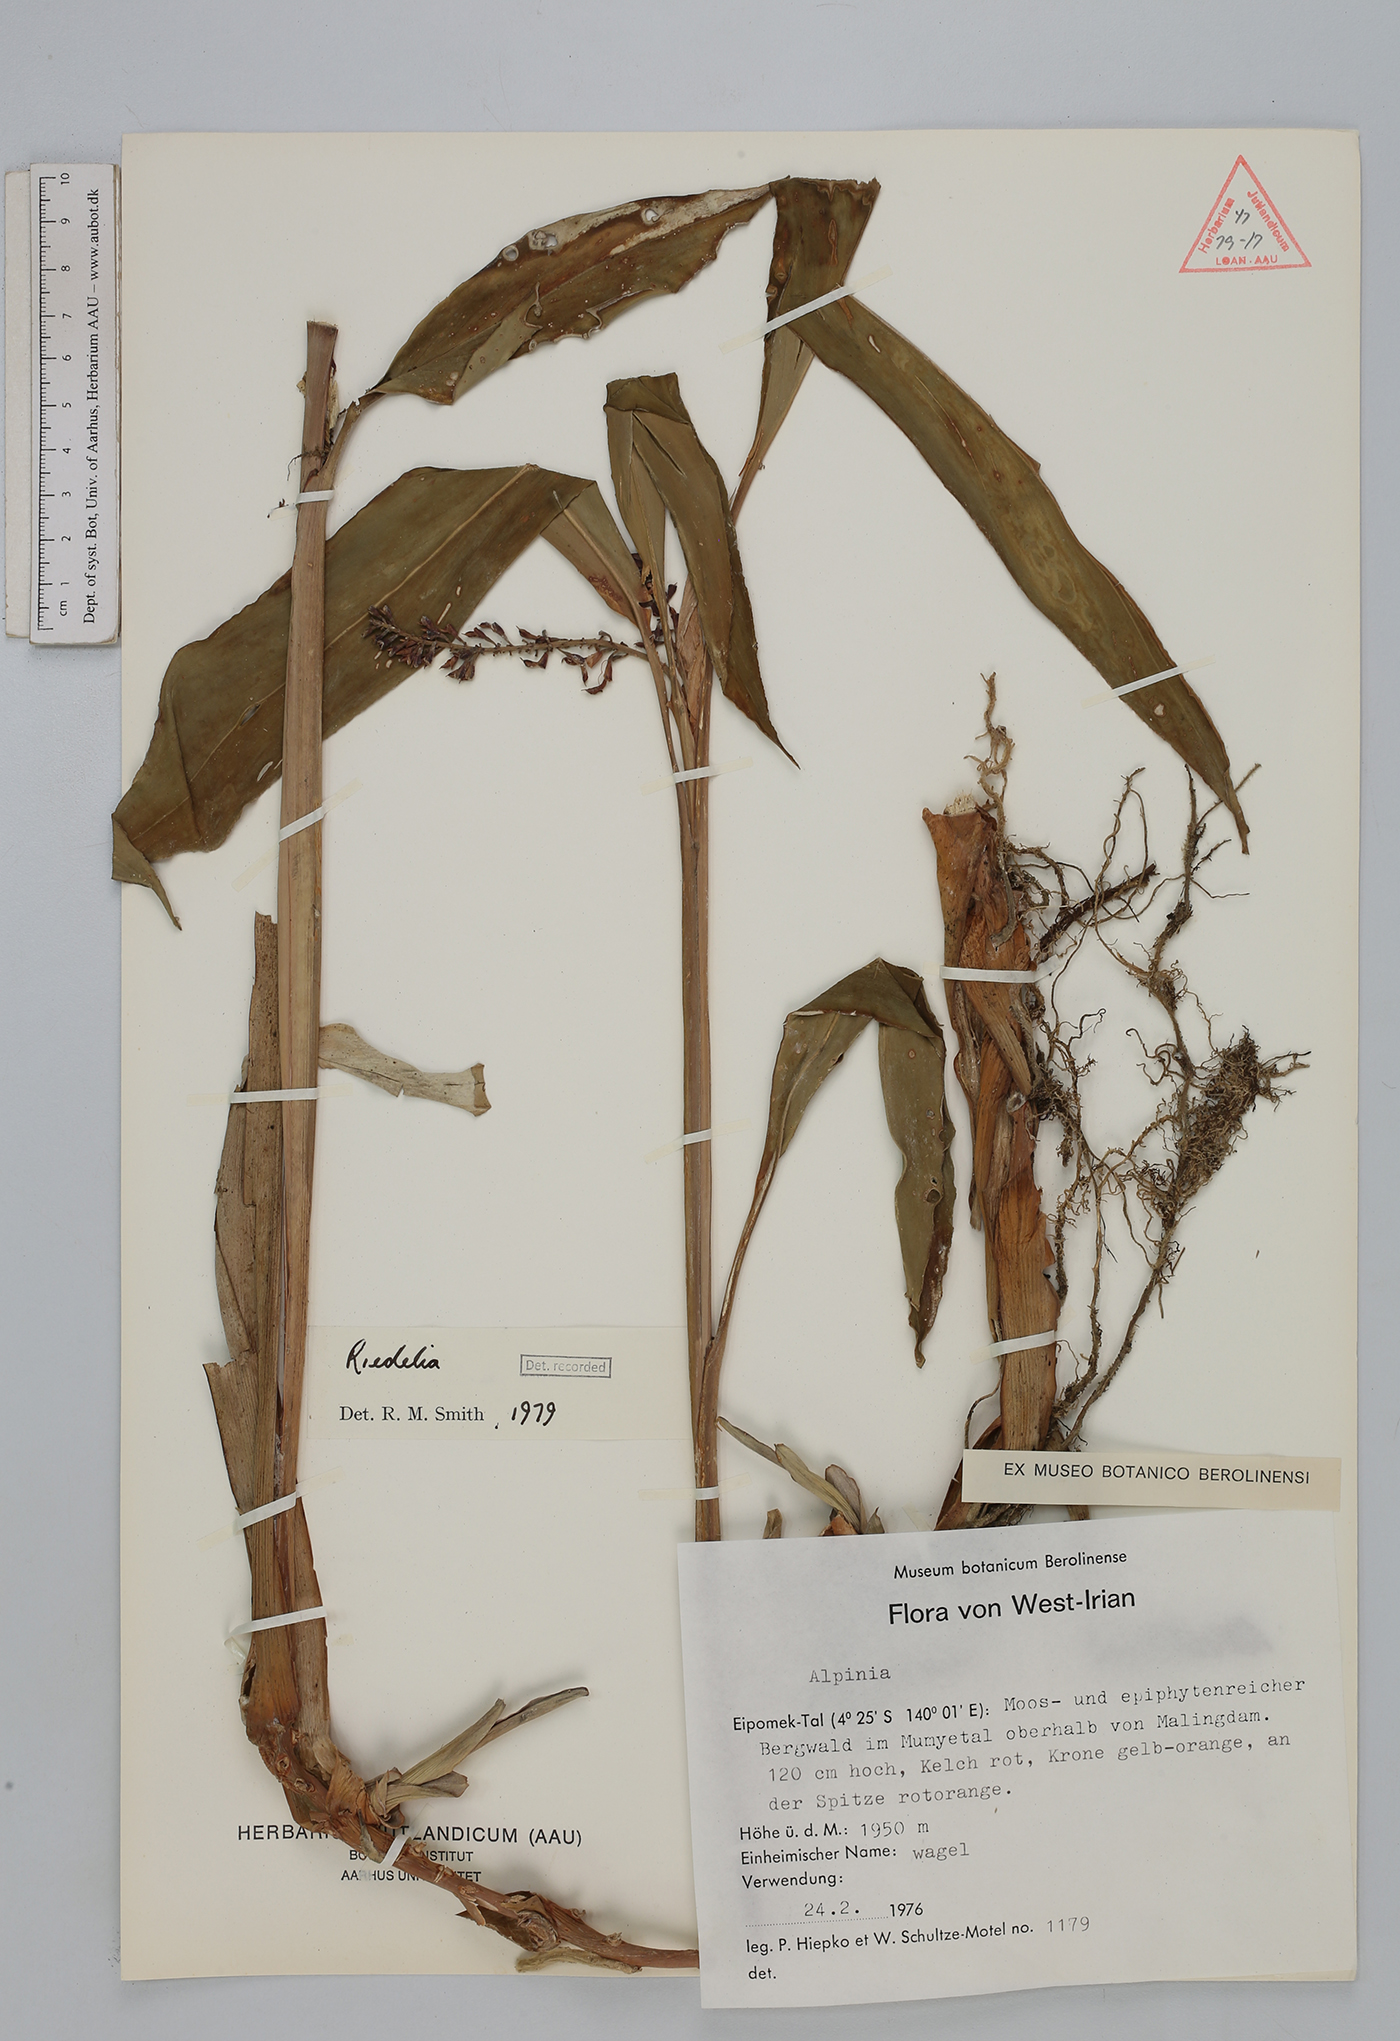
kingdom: Plantae
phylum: Tracheophyta
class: Liliopsida
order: Zingiberales
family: Zingiberaceae
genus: Riedelia
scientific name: Riedelia
